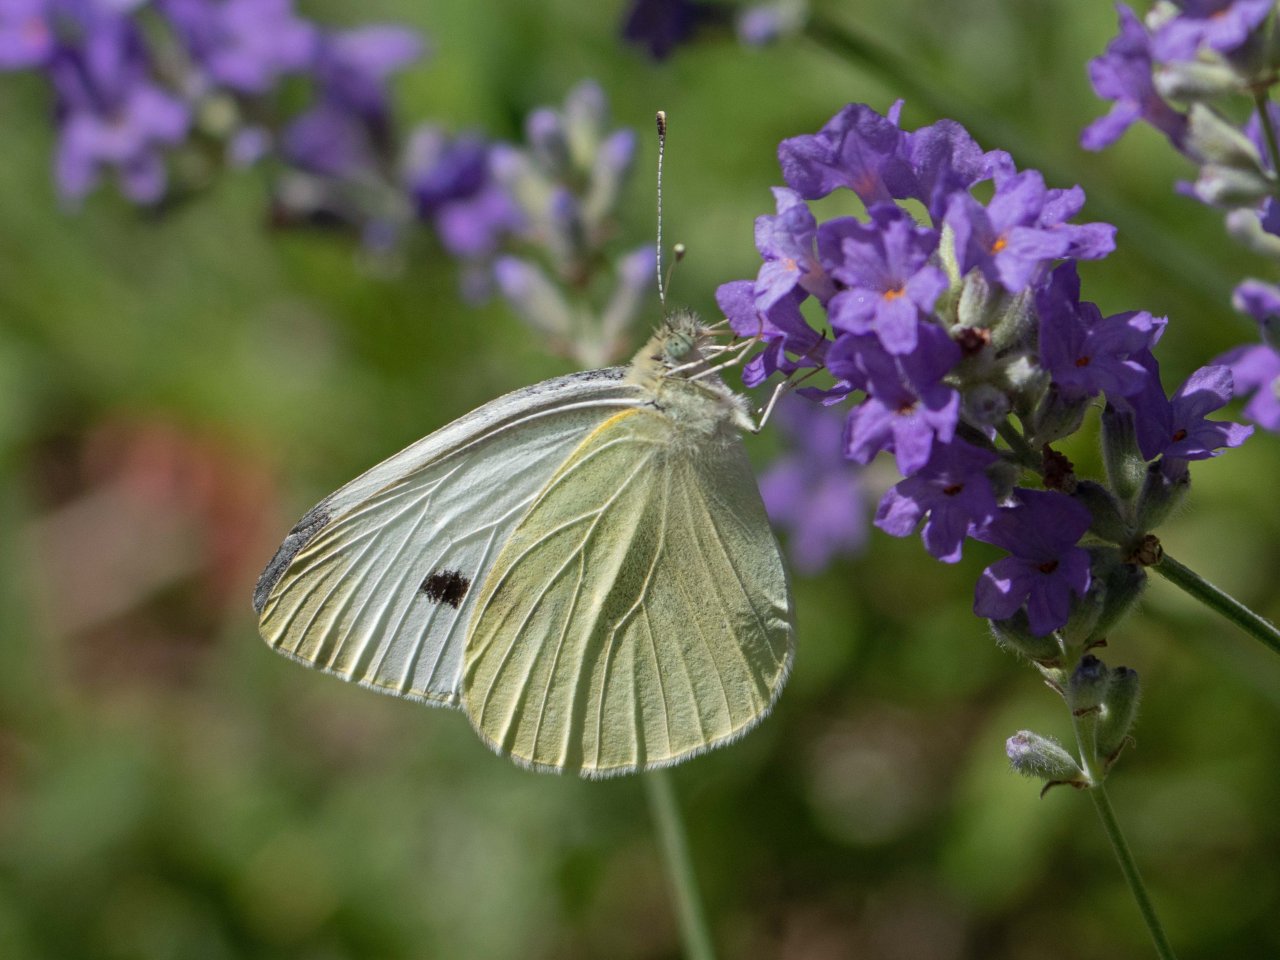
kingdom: Animalia
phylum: Arthropoda
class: Insecta
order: Lepidoptera
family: Pieridae
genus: Pieris
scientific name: Pieris rapae
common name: Cabbage White
